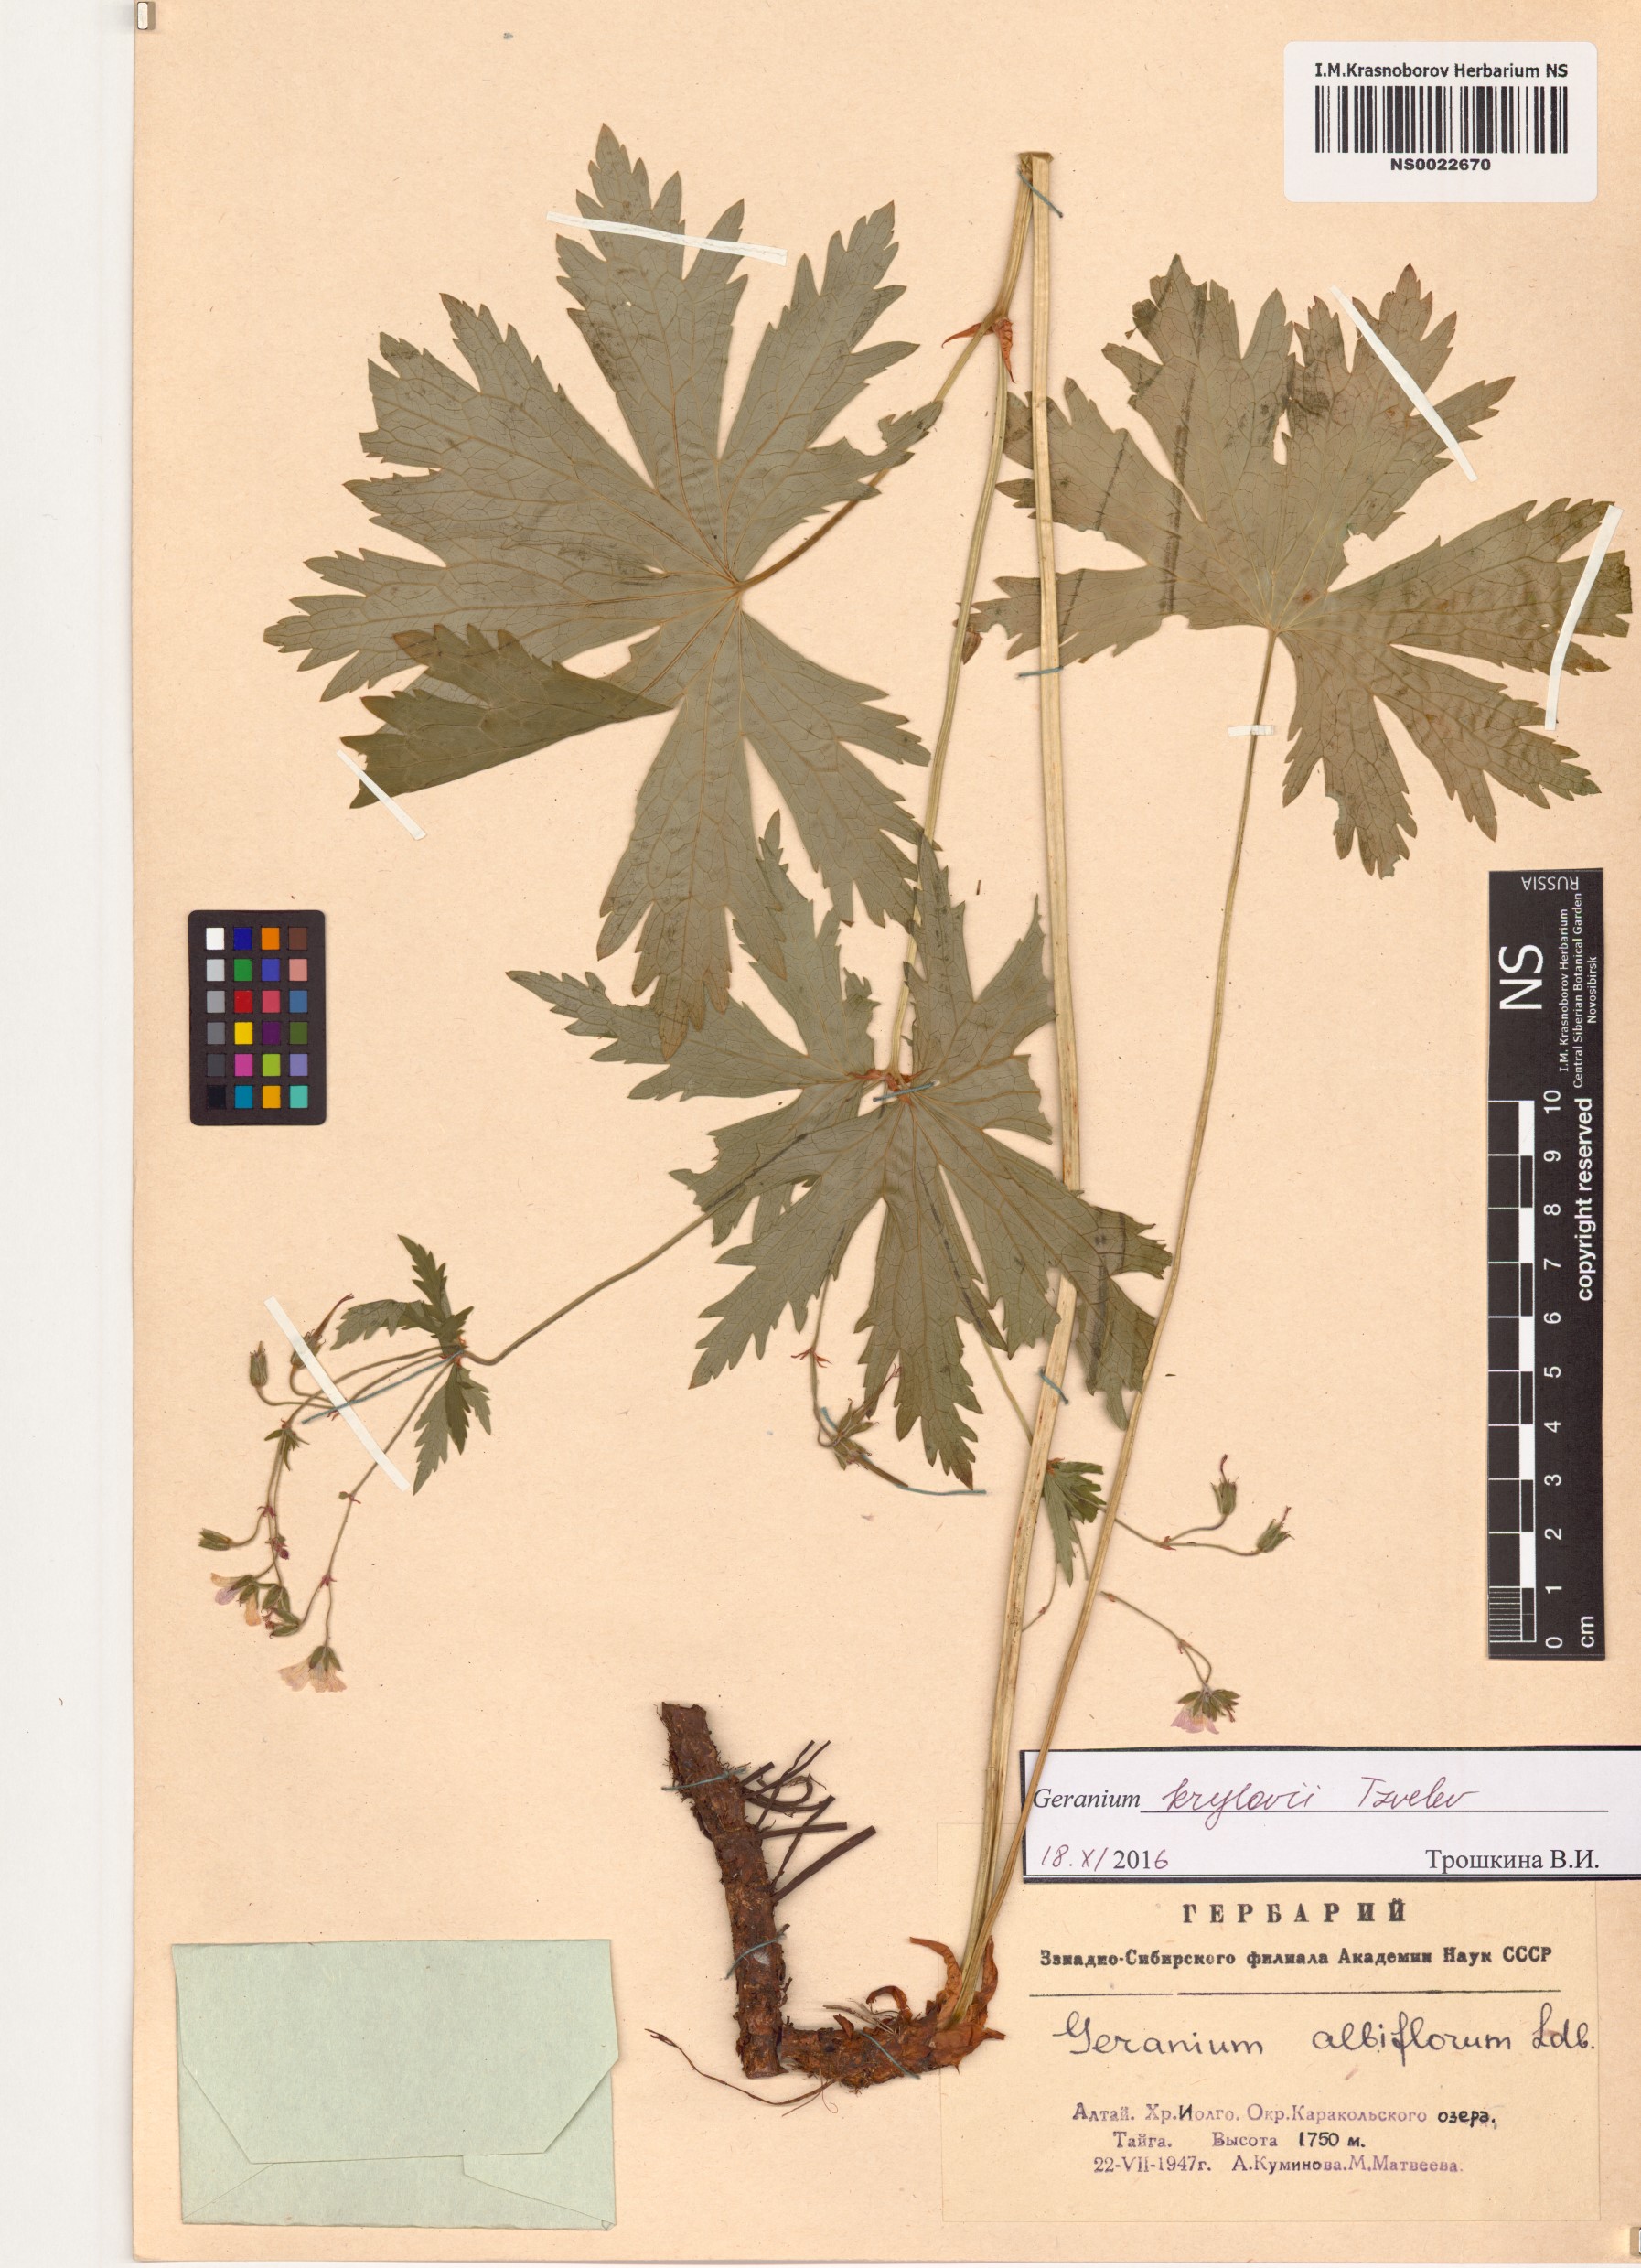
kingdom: Plantae
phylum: Tracheophyta
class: Magnoliopsida
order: Geraniales
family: Geraniaceae
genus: Geranium
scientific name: Geranium sylvaticum
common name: Wood crane's-bill
